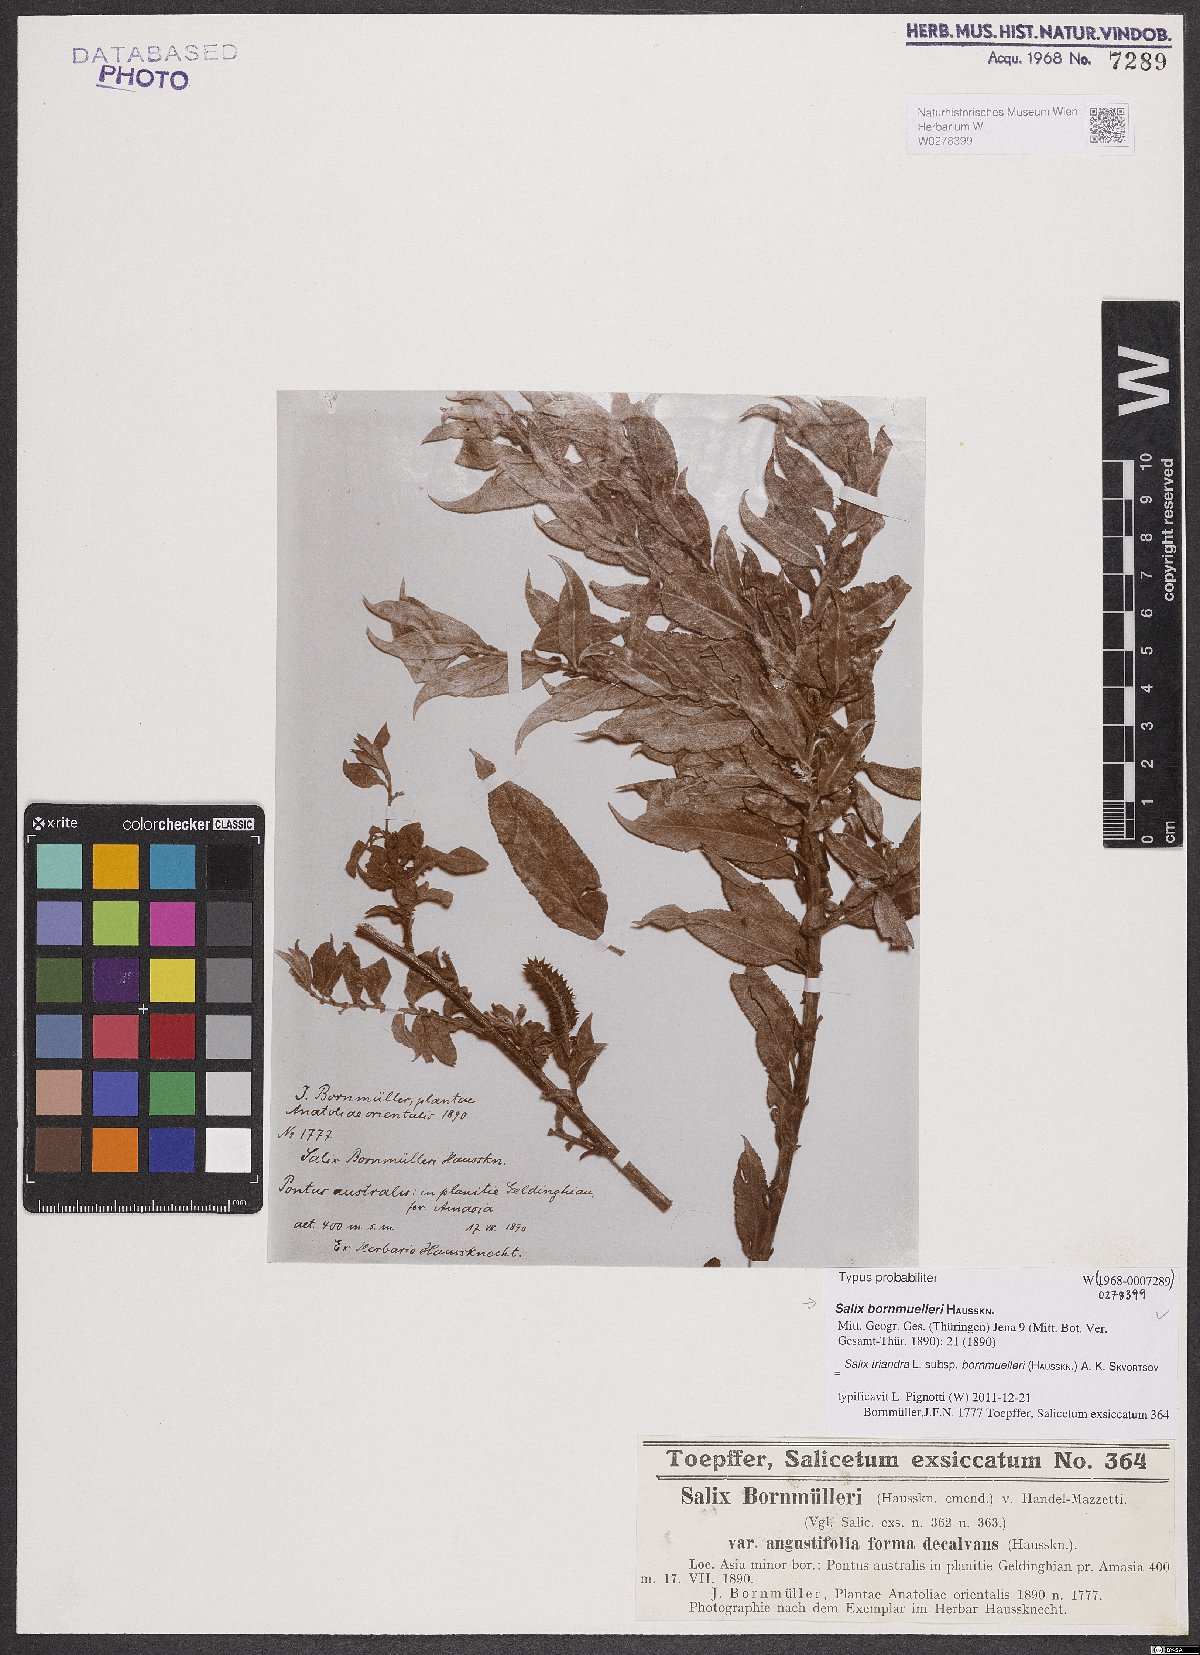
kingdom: Plantae
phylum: Tracheophyta
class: Magnoliopsida
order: Malpighiales
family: Salicaceae
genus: Salix
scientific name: Salix triandra
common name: Almond willow
